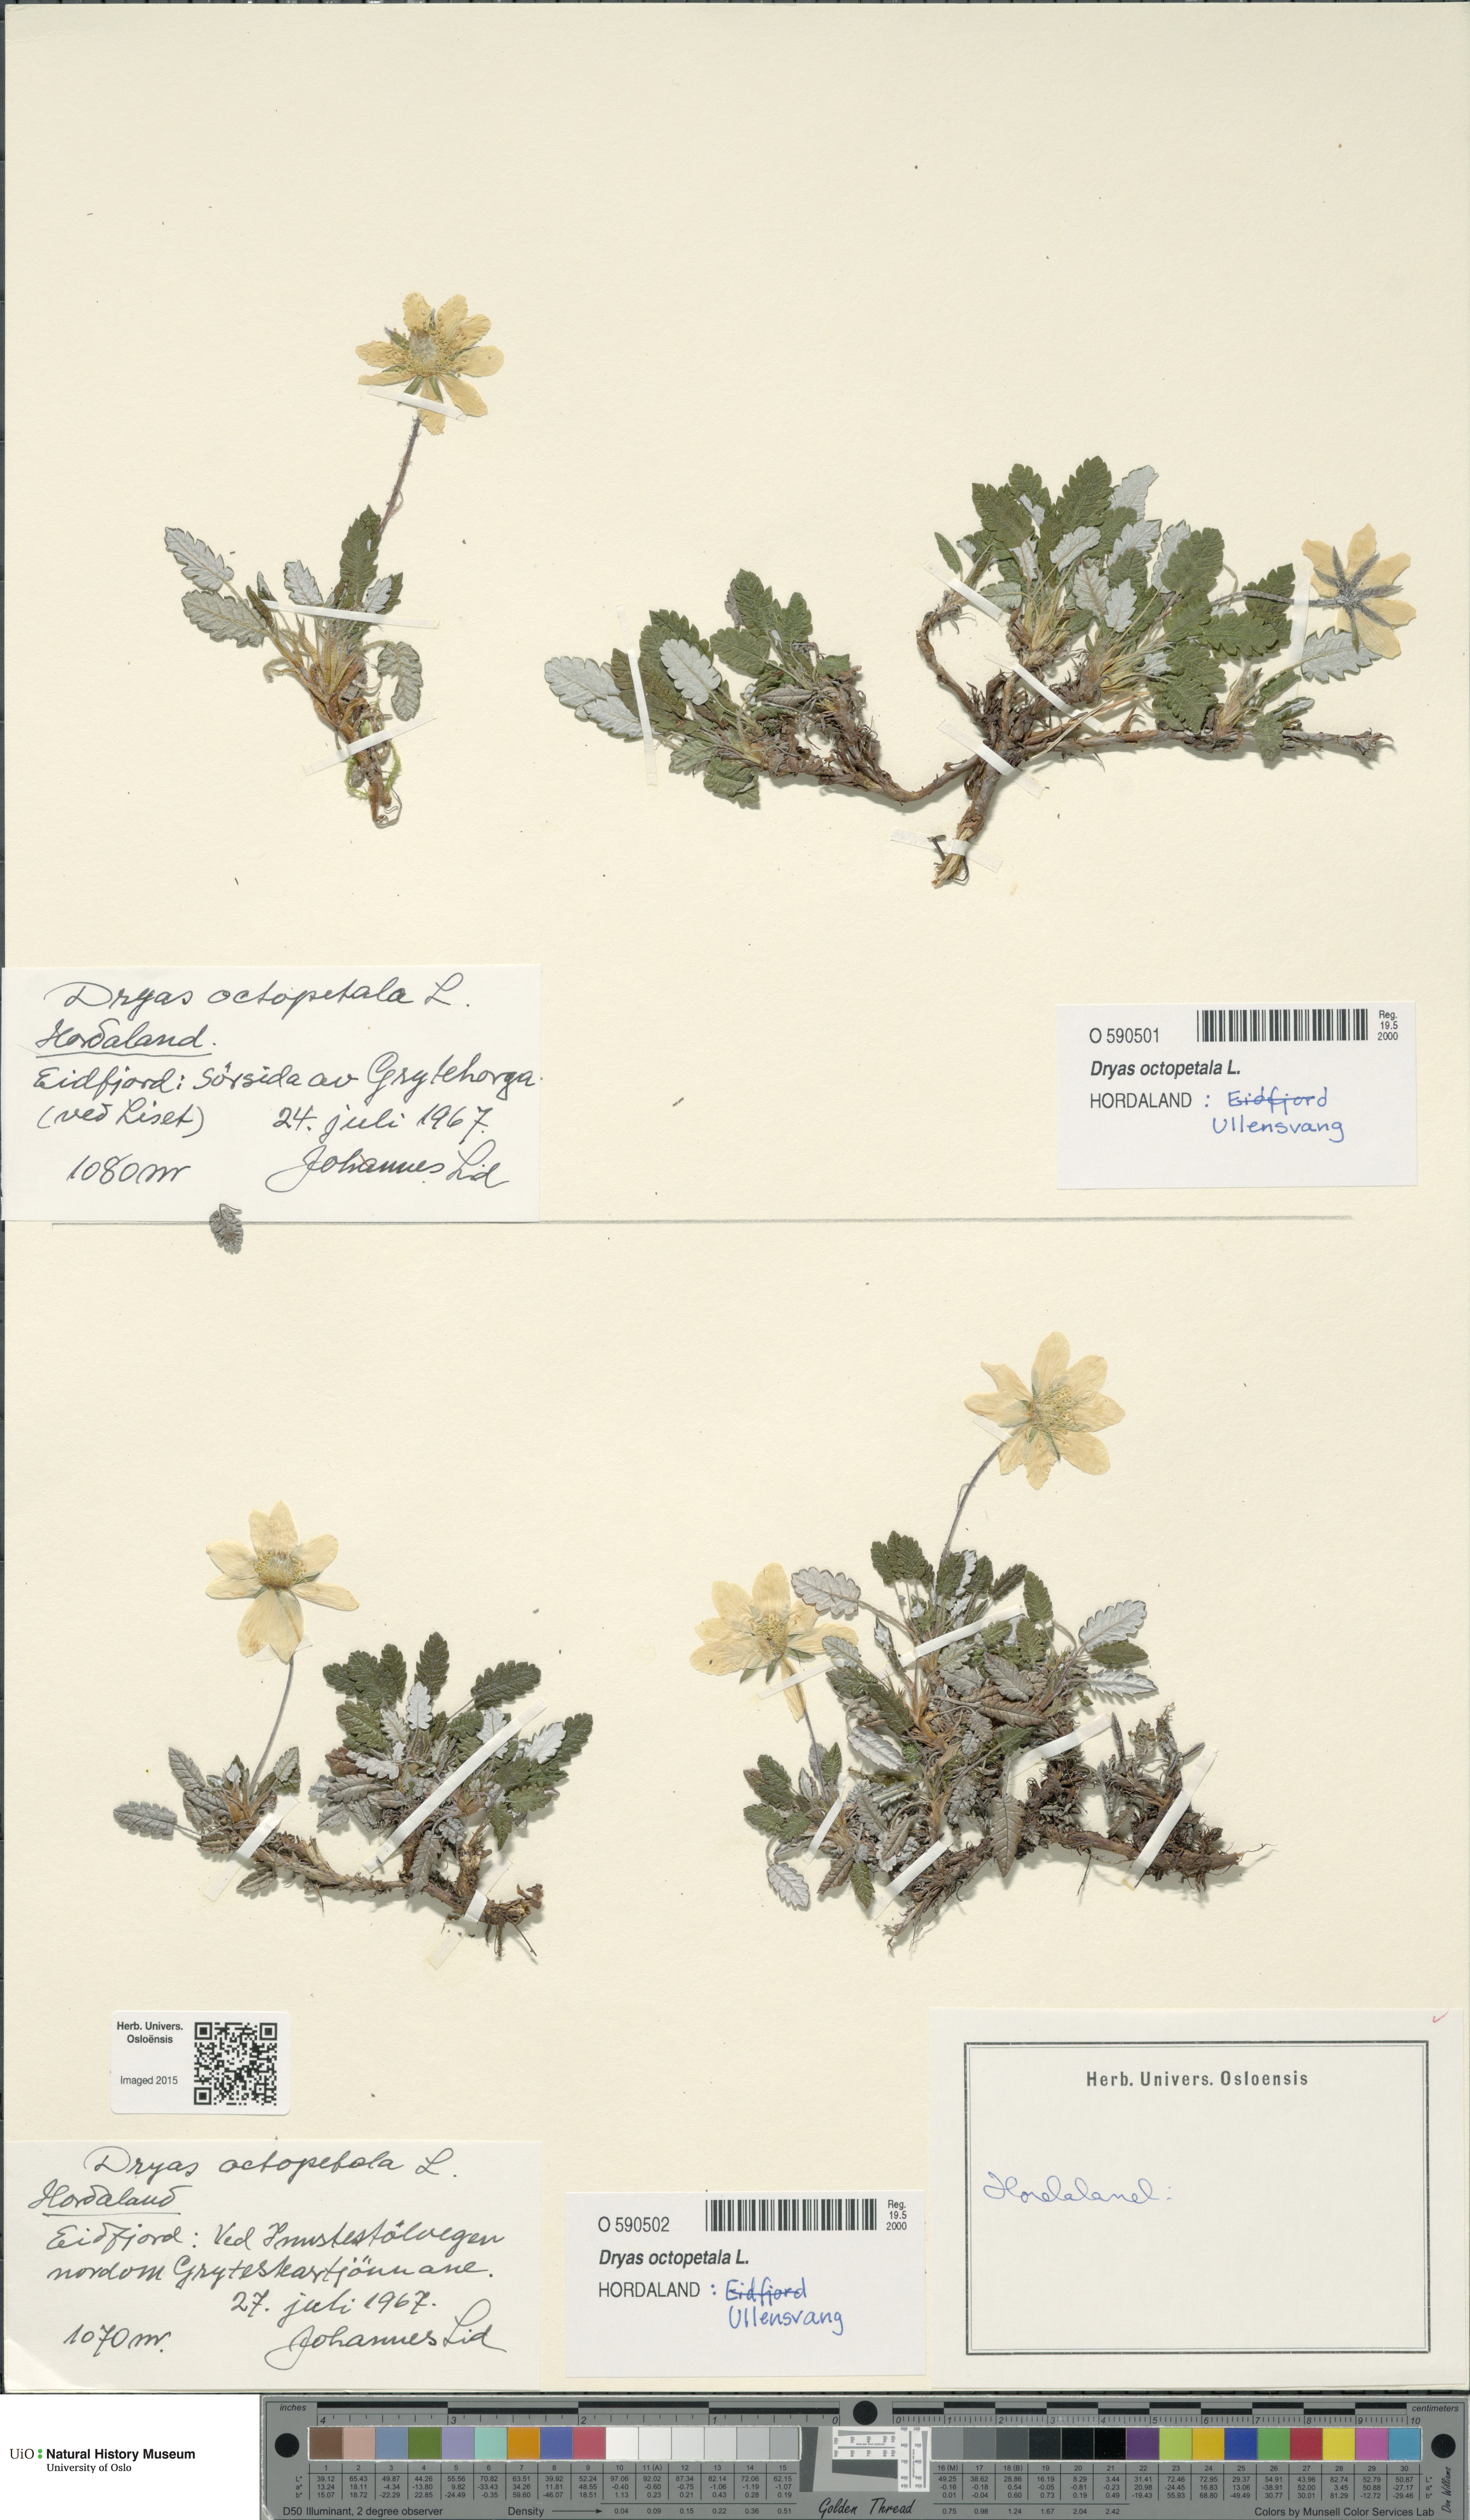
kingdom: Plantae
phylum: Tracheophyta
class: Magnoliopsida
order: Rosales
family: Rosaceae
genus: Dryas
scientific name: Dryas octopetala
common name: Eight-petal mountain-avens
